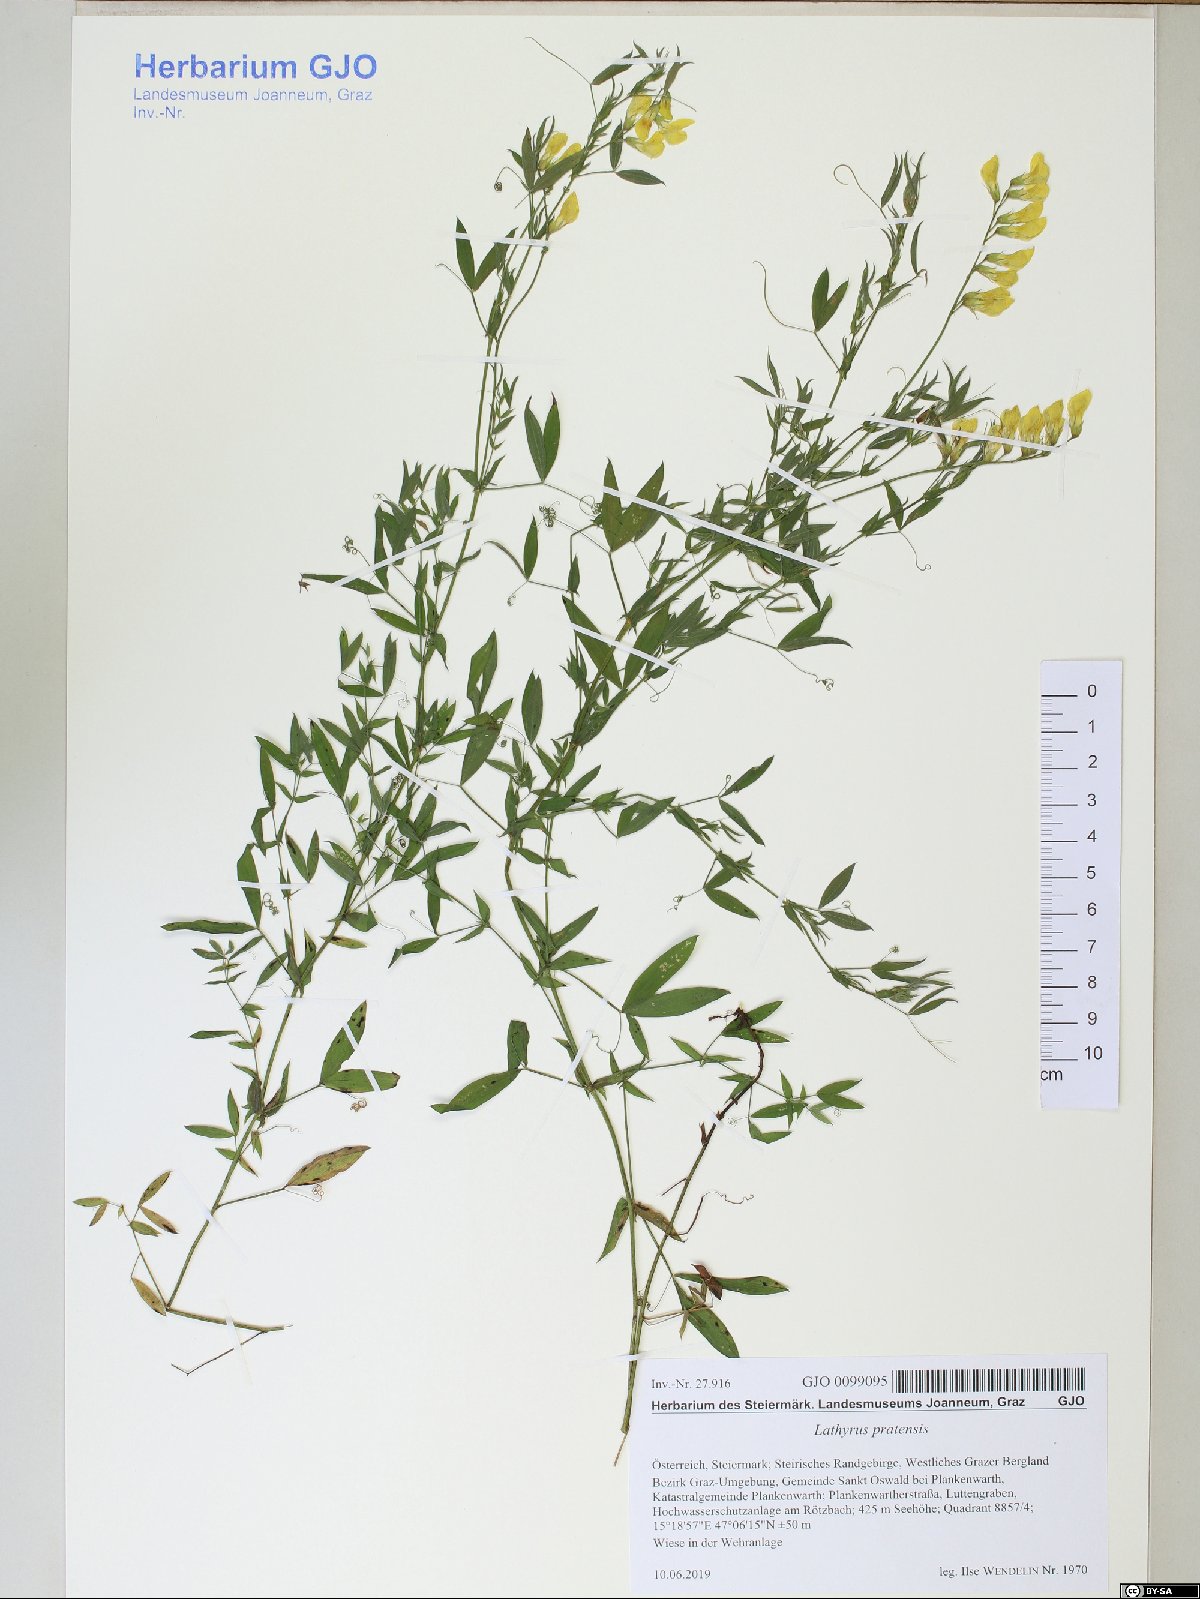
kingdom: Plantae
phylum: Tracheophyta
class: Magnoliopsida
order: Fabales
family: Fabaceae
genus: Lathyrus
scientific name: Lathyrus pratensis
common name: Meadow vetchling
